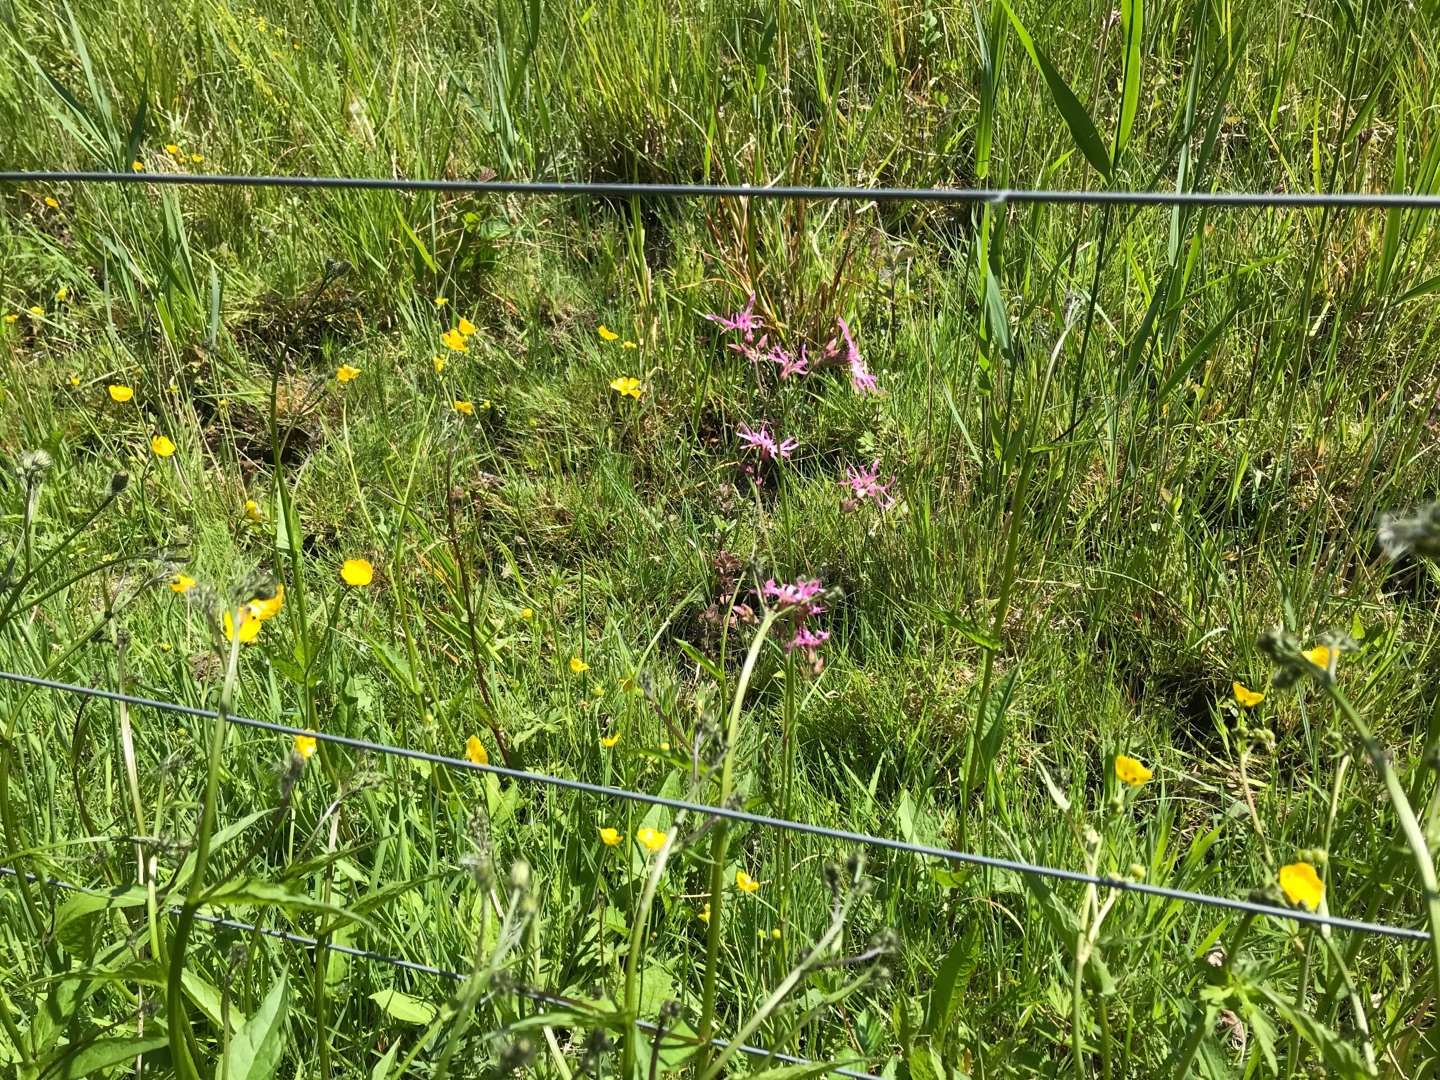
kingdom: Plantae
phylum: Tracheophyta
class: Magnoliopsida
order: Caryophyllales
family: Caryophyllaceae
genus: Silene
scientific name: Silene flos-cuculi
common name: Trævlekrone
